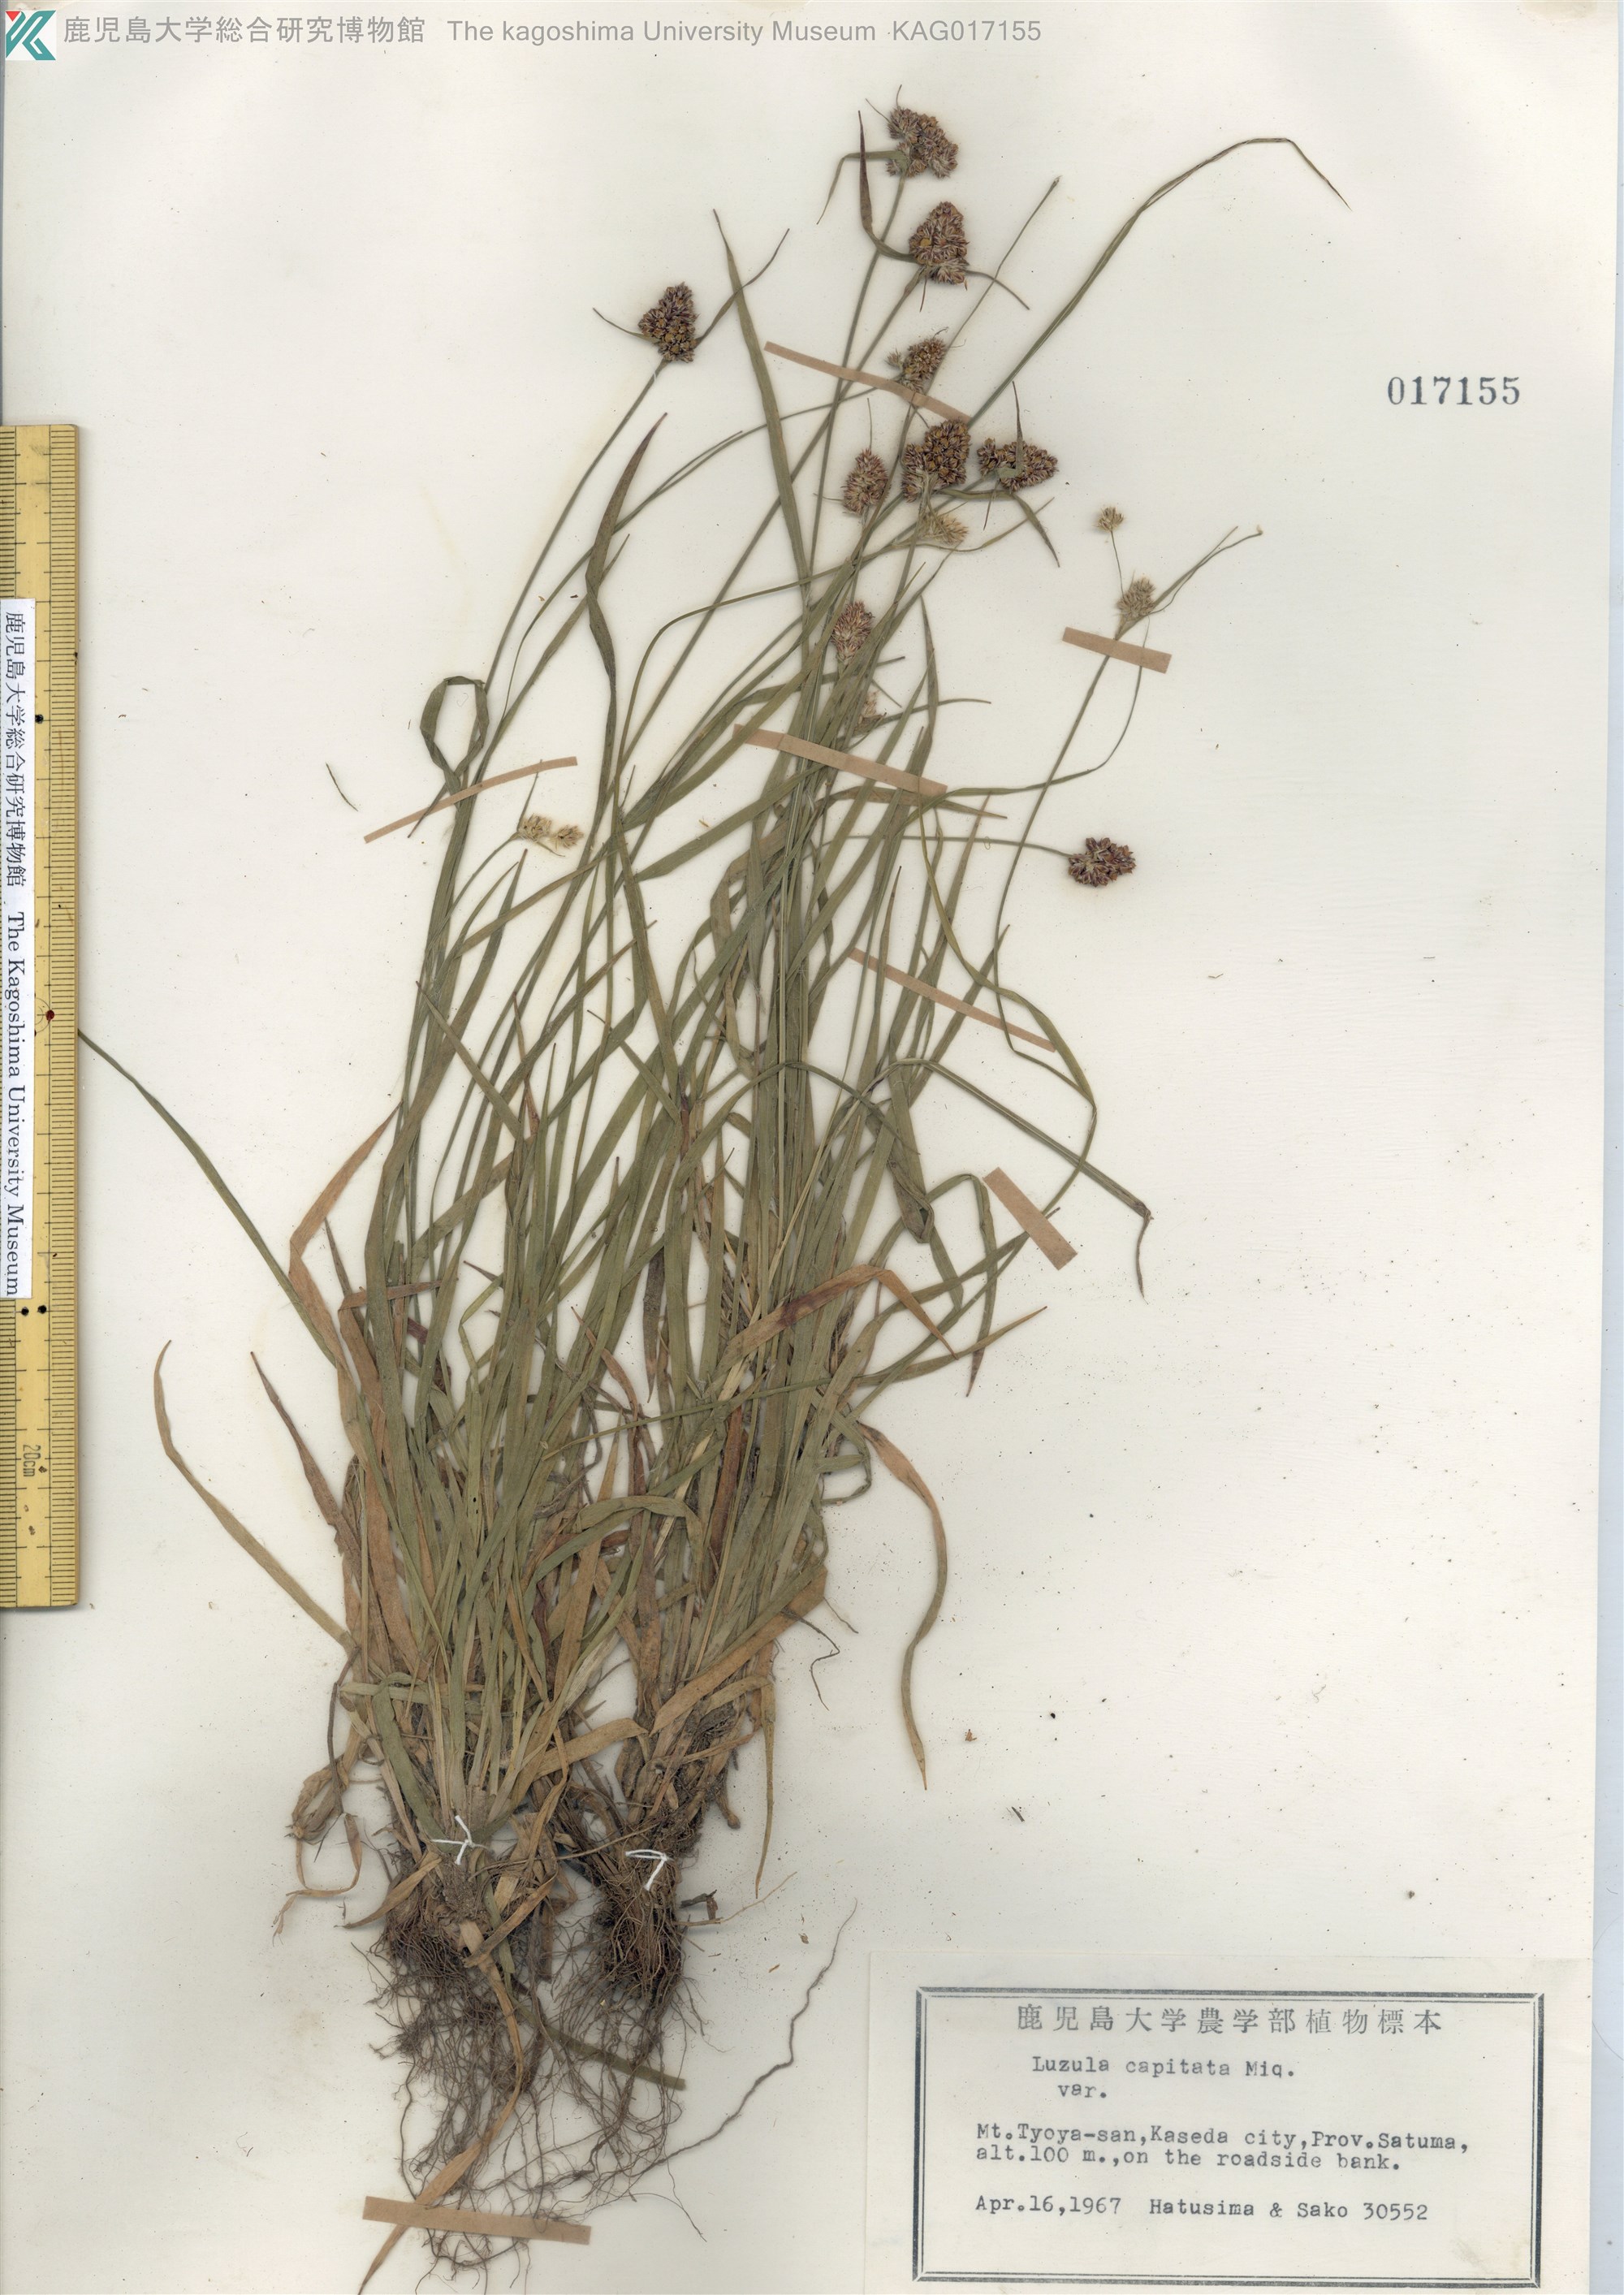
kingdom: Plantae
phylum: Tracheophyta
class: Liliopsida
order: Poales
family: Juncaceae
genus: Luzula
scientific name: Luzula capitata
